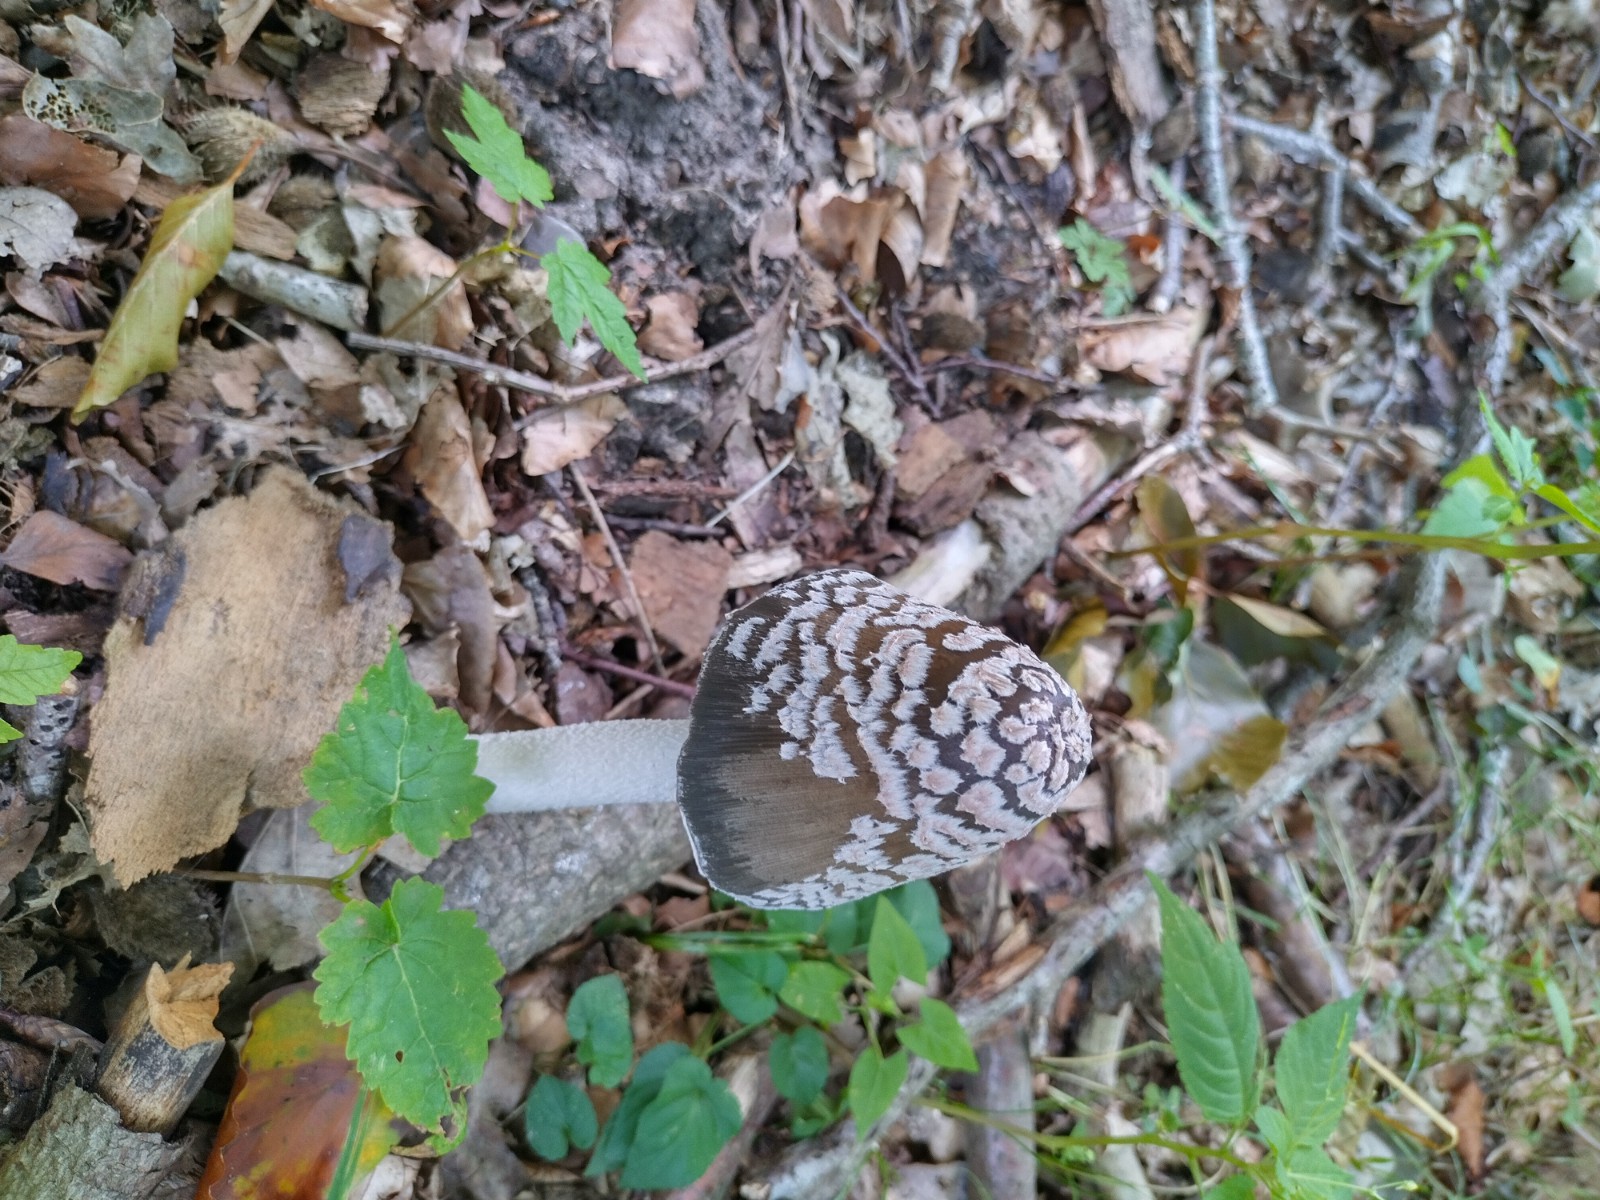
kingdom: Fungi
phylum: Basidiomycota
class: Agaricomycetes
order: Agaricales
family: Psathyrellaceae
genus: Coprinopsis
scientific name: Coprinopsis picacea
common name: skade-blækhat
